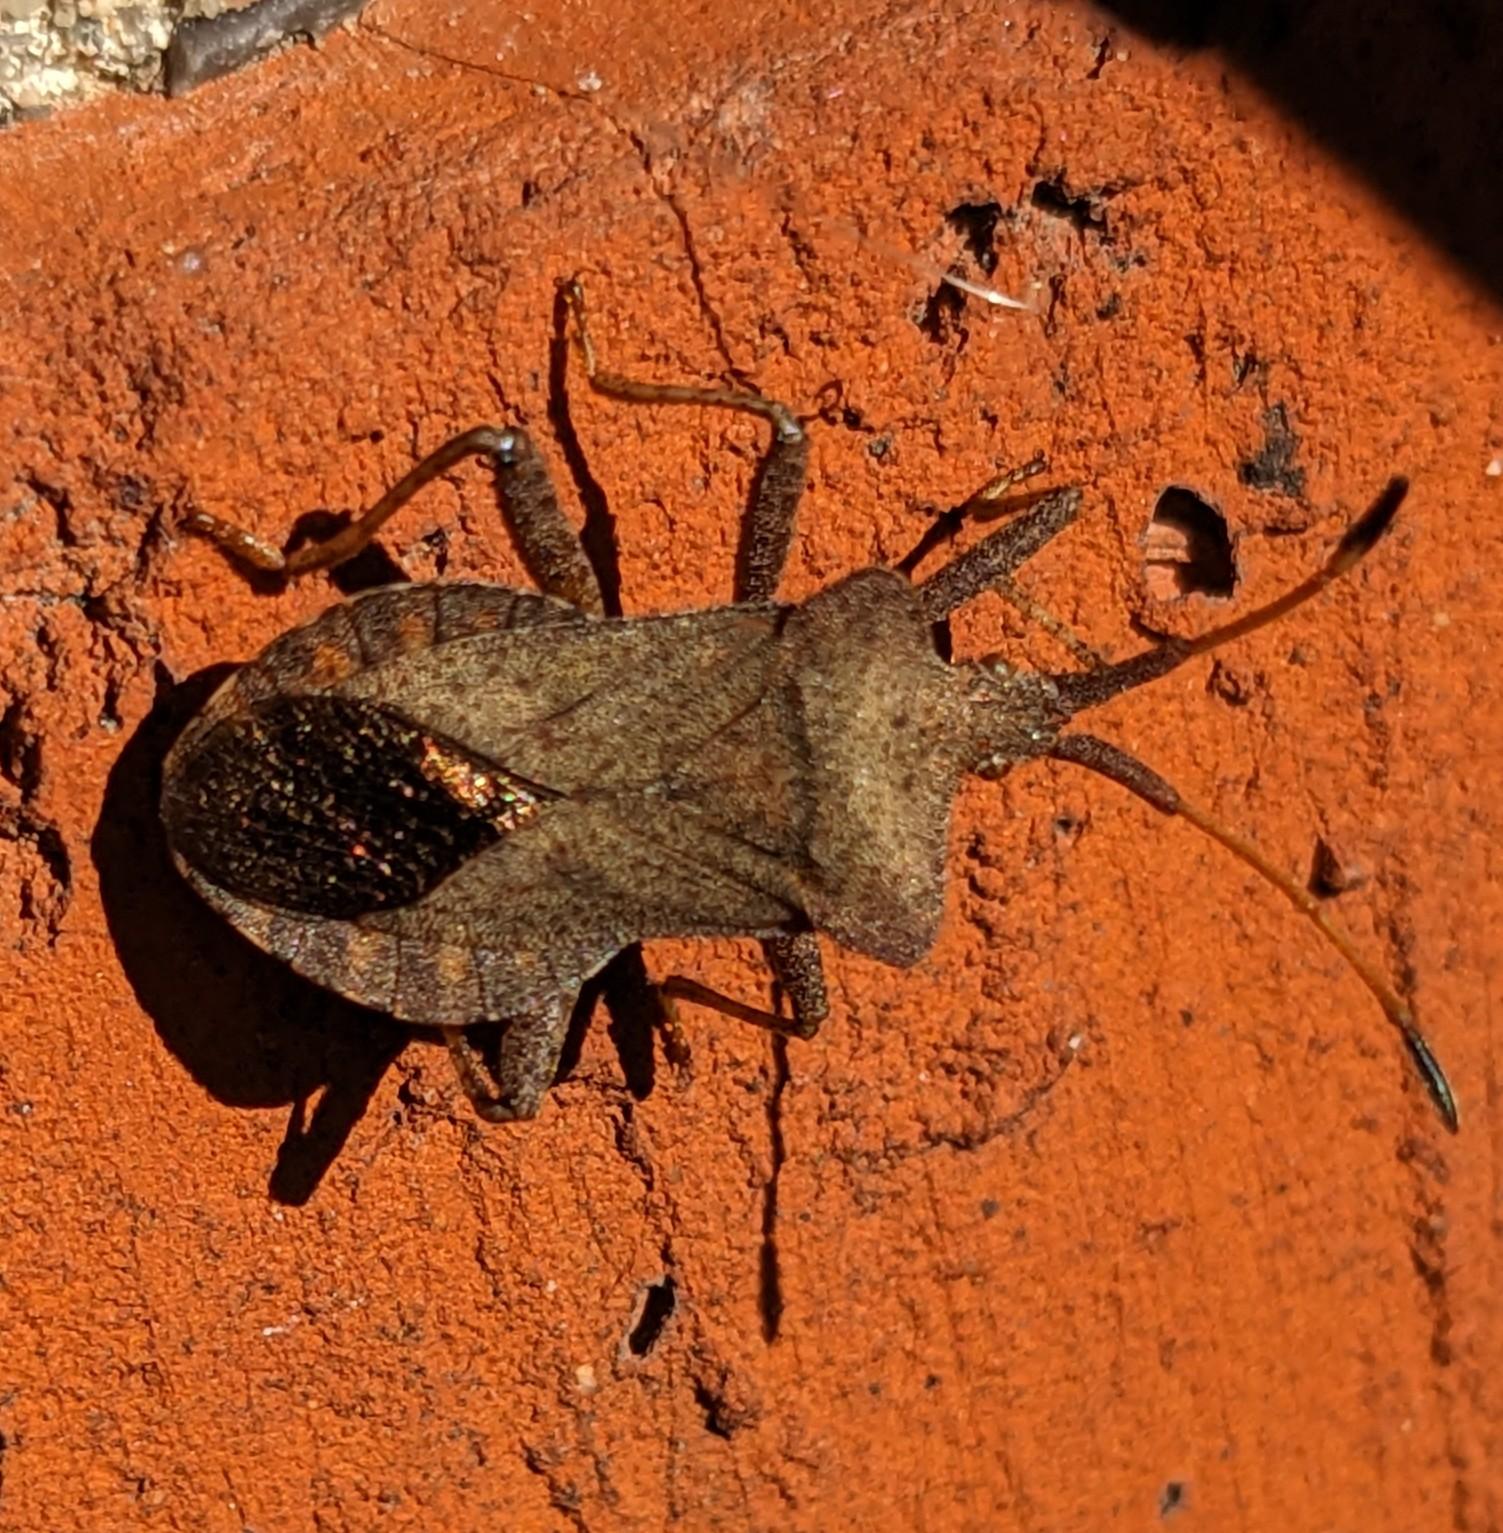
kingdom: Animalia
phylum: Arthropoda
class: Insecta
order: Hemiptera
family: Coreidae
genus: Coreus
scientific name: Coreus marginatus
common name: Skræppetæge
